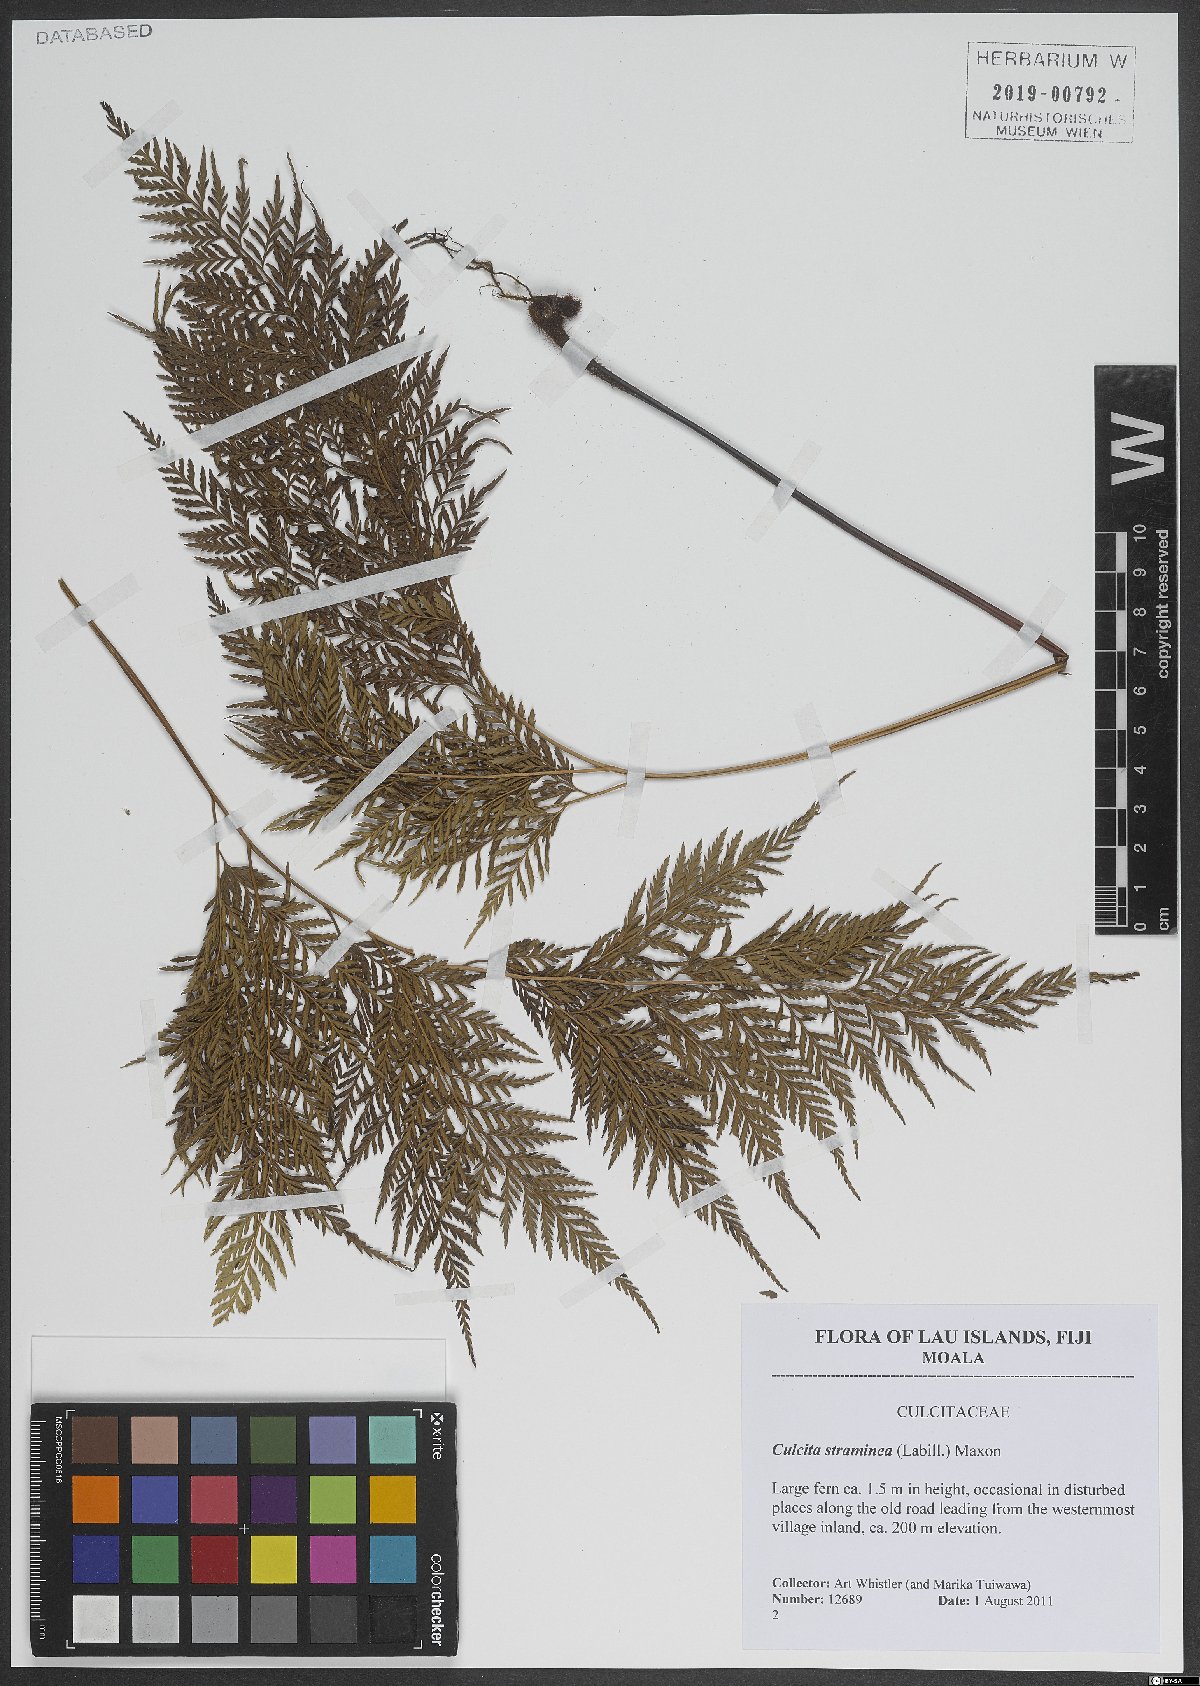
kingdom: Plantae
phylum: Tracheophyta
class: Polypodiopsida
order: Cyatheales
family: Dicksoniaceae
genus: Calochlaena
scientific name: Calochlaena straminea
